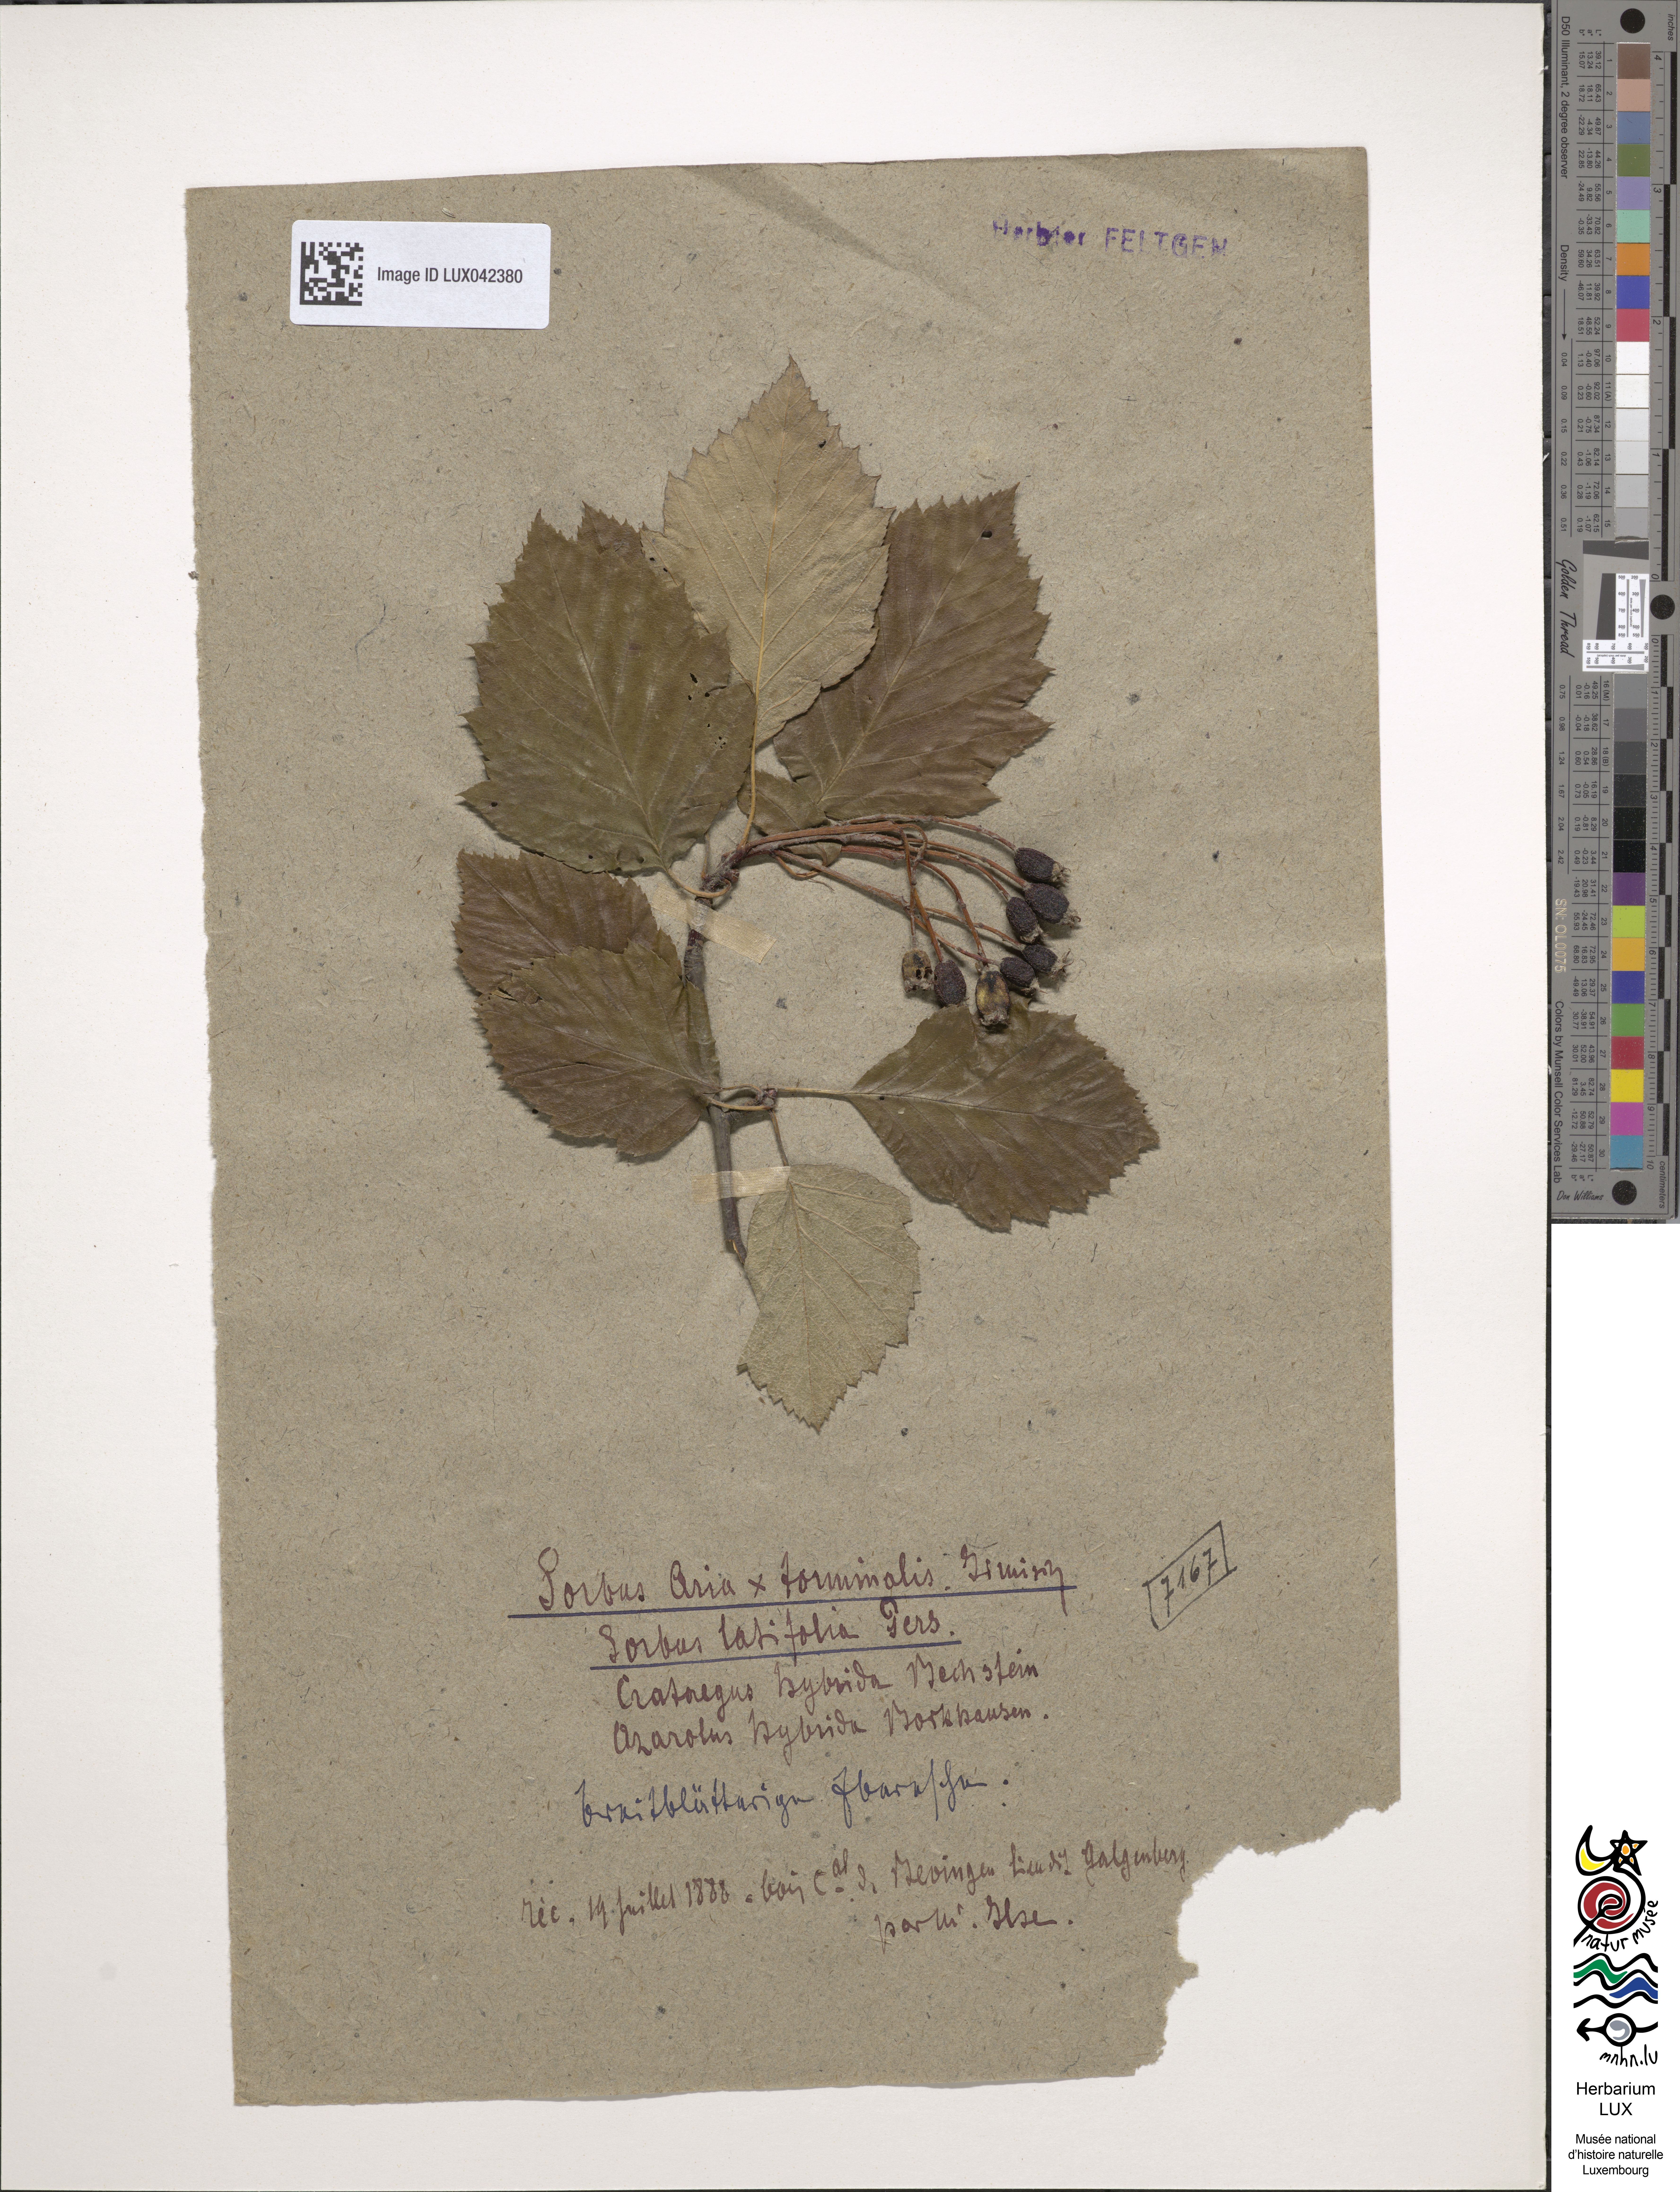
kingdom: Plantae
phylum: Tracheophyta
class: Magnoliopsida
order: Rosales
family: Rosaceae
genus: Karpatiosorbus
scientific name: Karpatiosorbus hybrida
